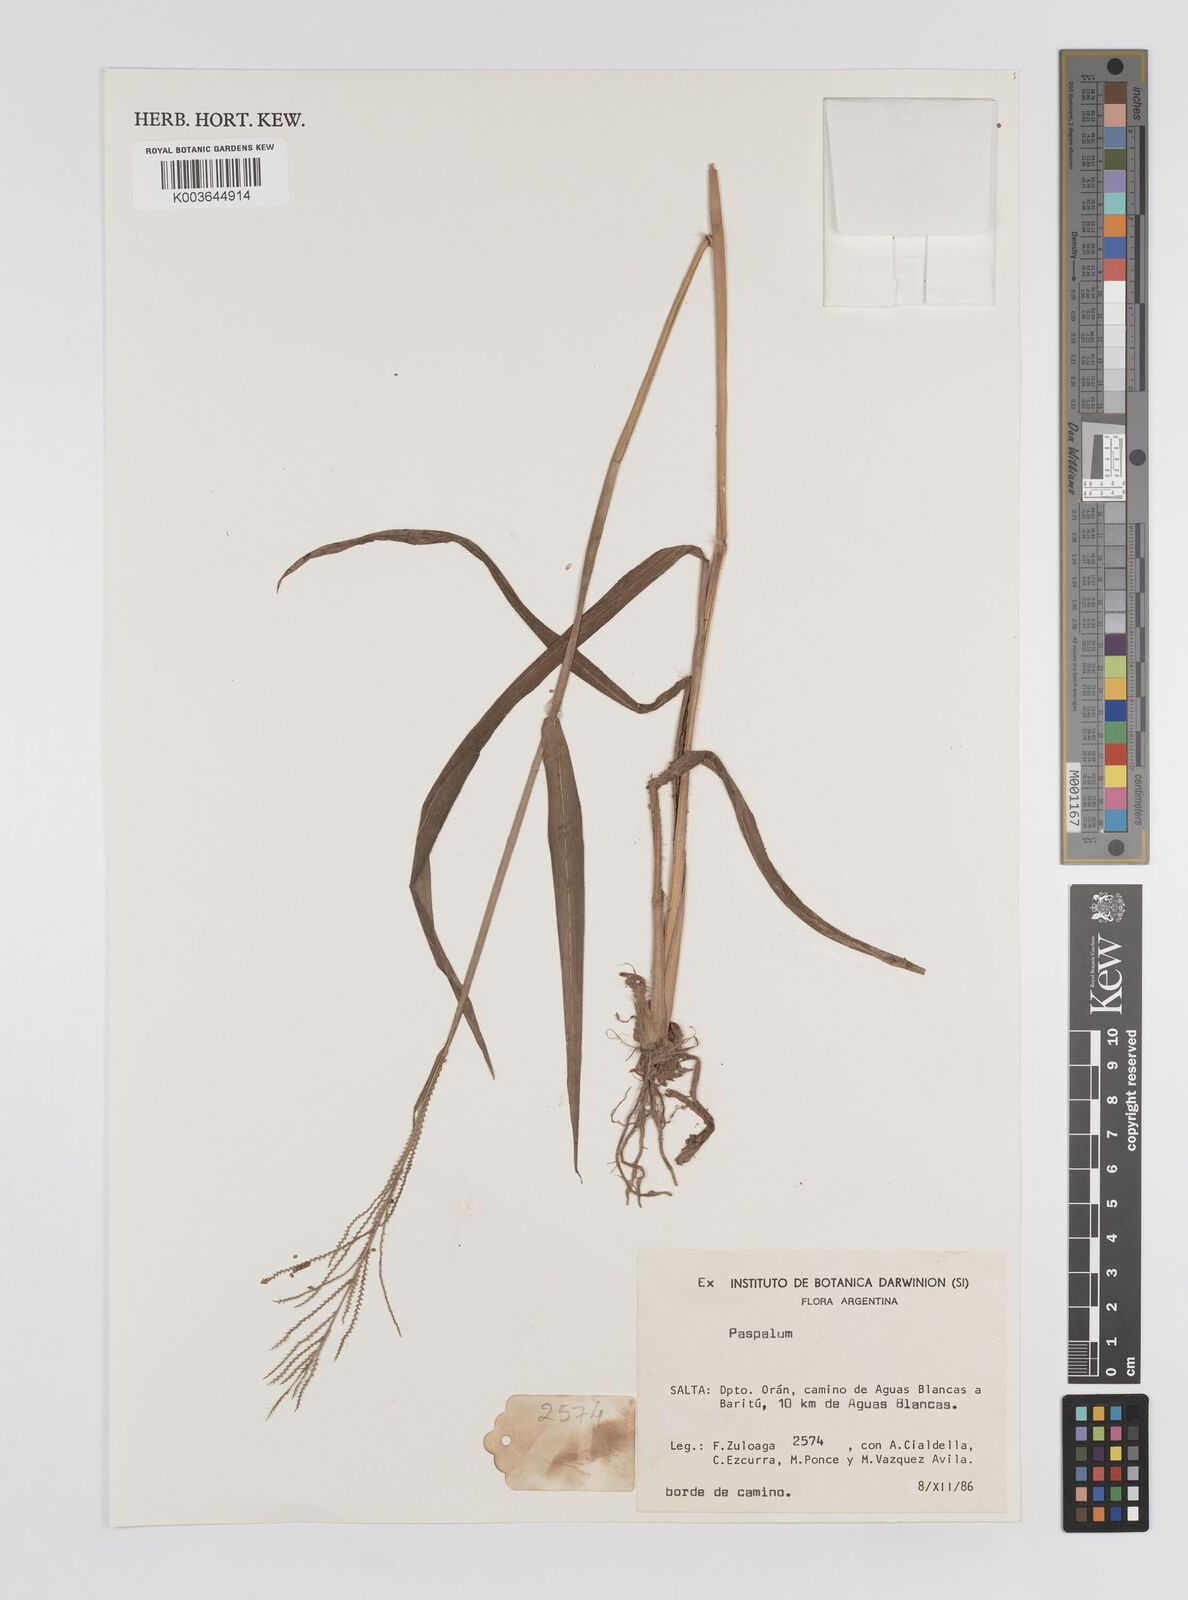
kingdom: Plantae
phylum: Tracheophyta
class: Liliopsida
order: Poales
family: Poaceae
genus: Paspalum
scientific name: Paspalum
